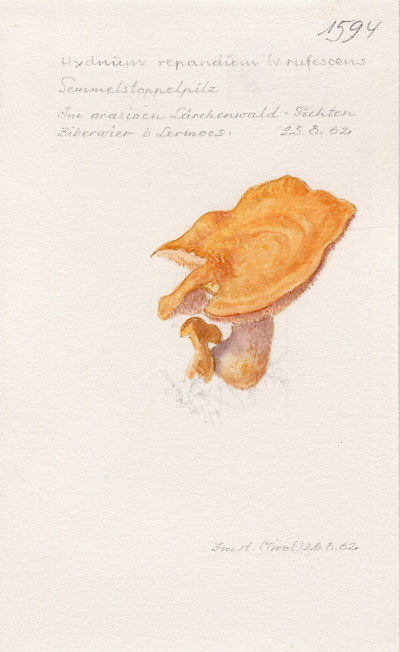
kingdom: Fungi
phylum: Basidiomycota
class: Agaricomycetes
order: Cantharellales
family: Hydnaceae
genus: Hydnum
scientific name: Hydnum rufescens
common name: Terracotta hedgehog
